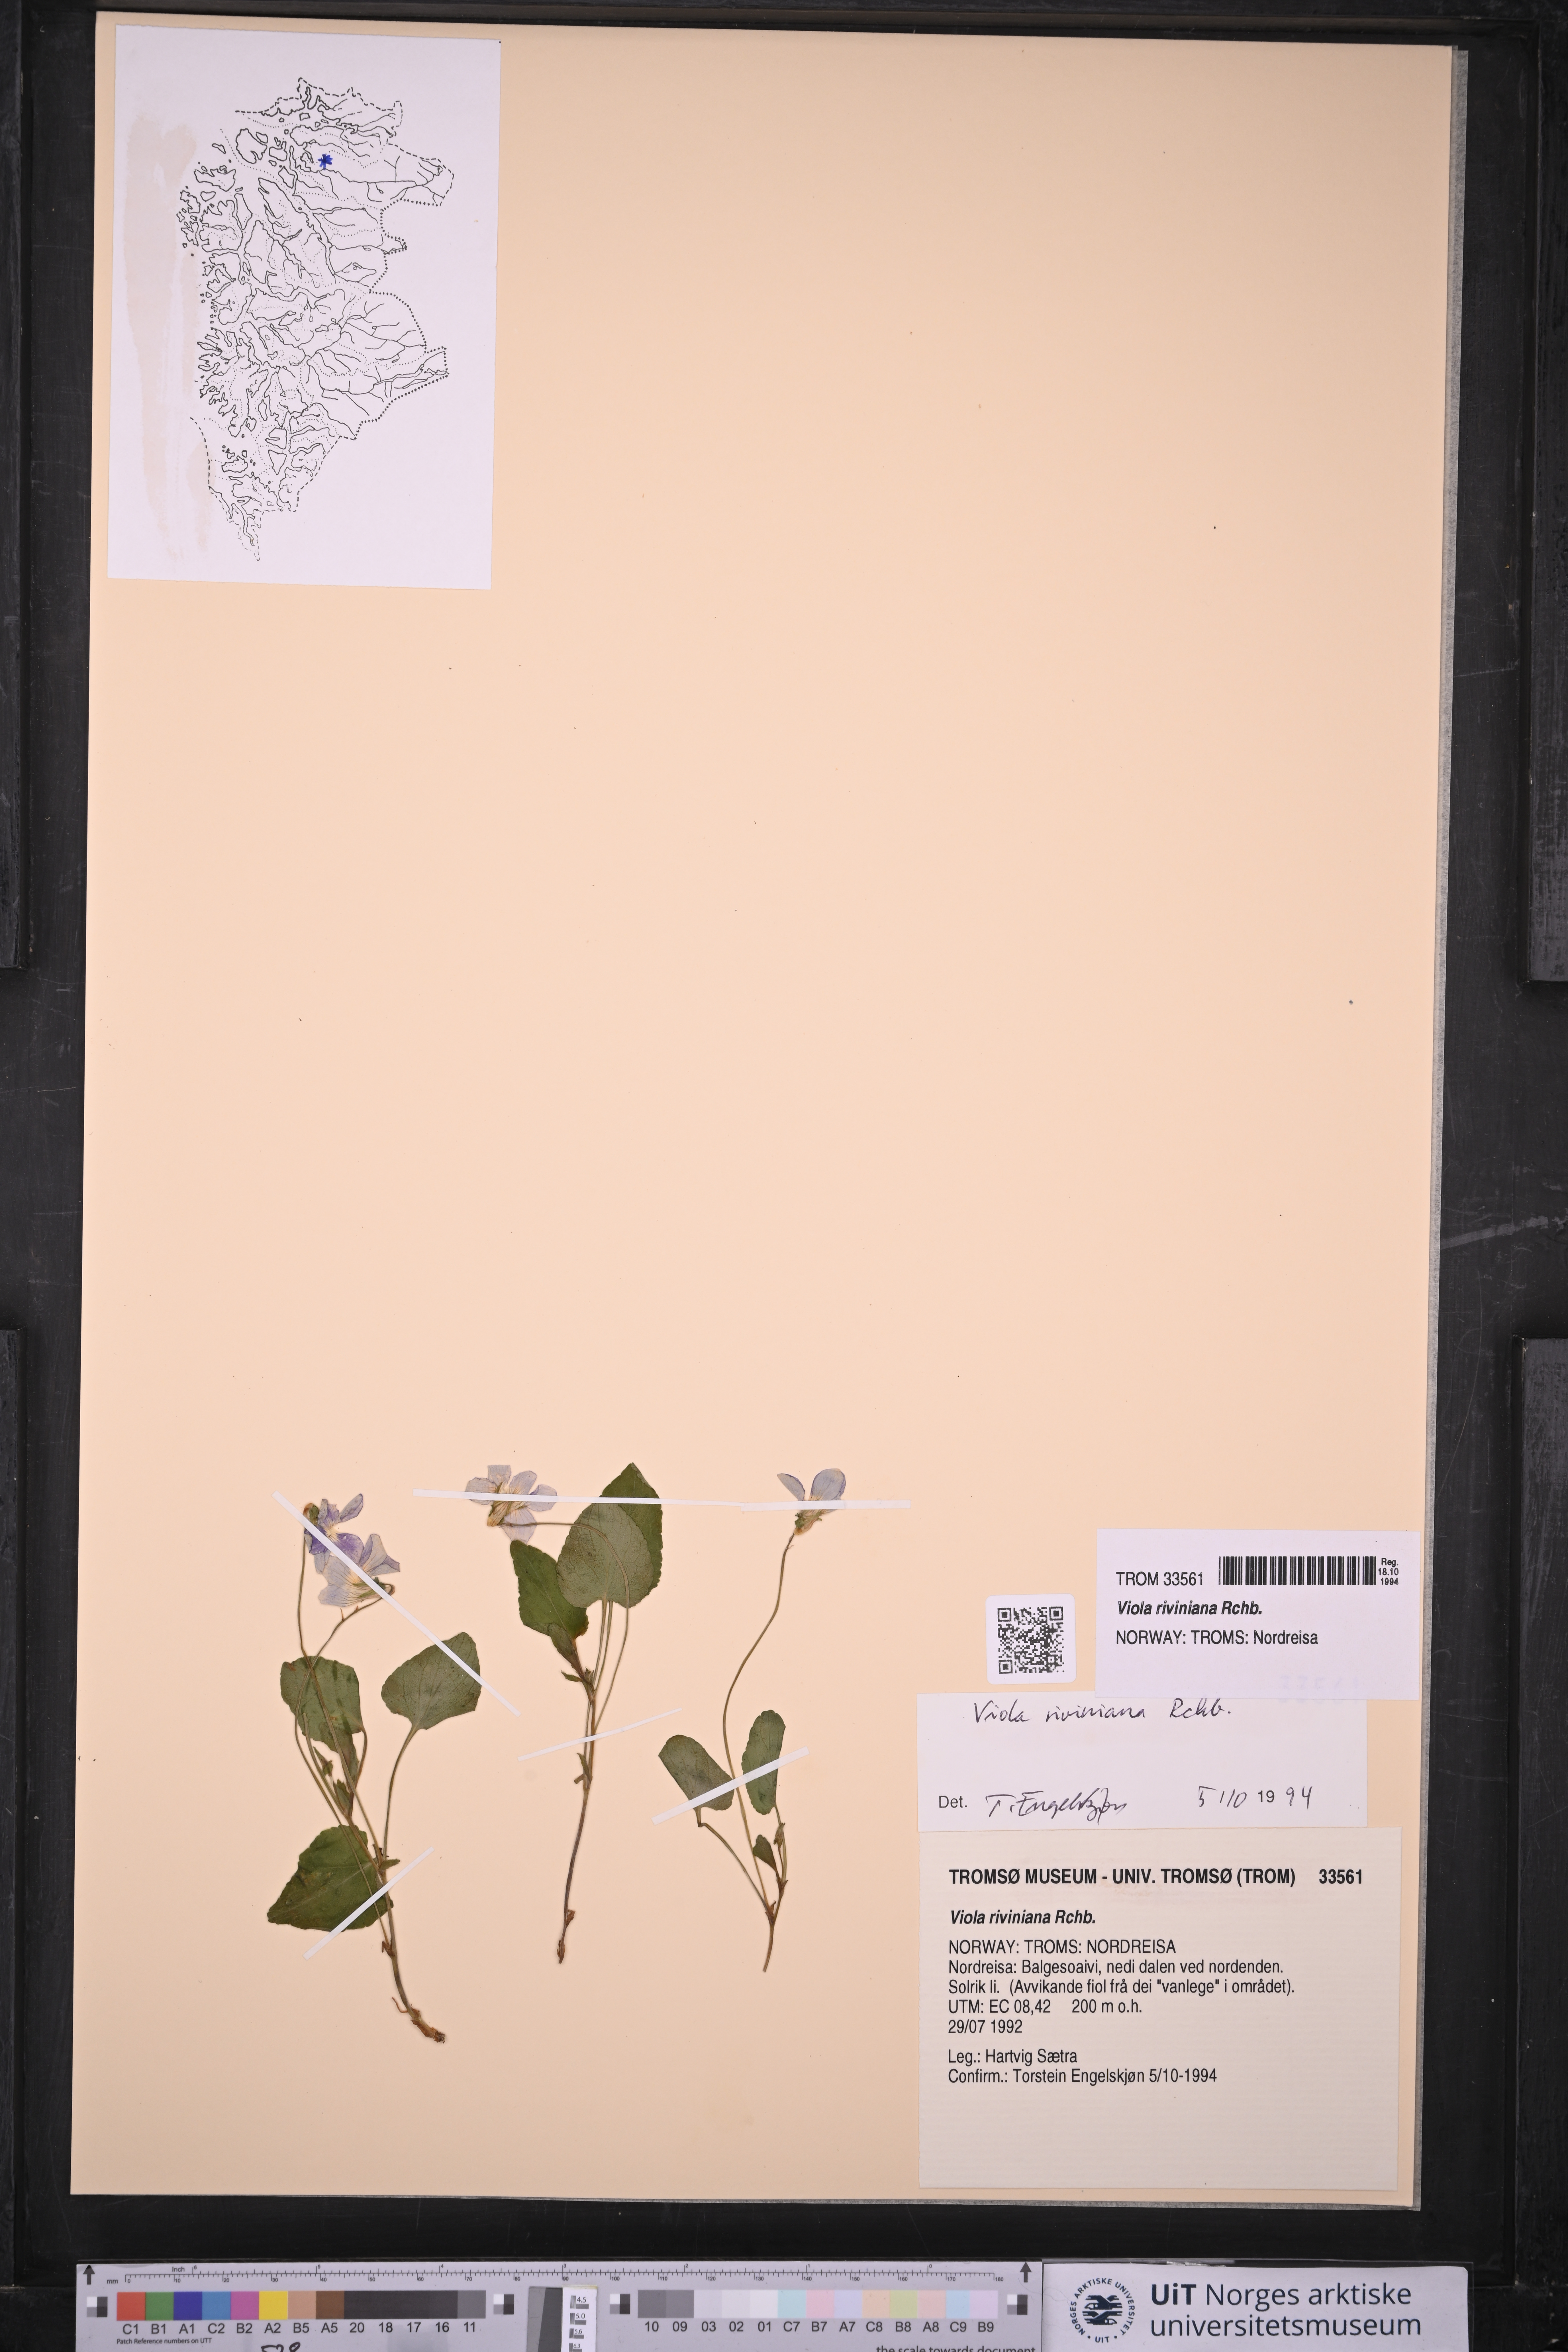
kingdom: Plantae
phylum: Tracheophyta
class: Magnoliopsida
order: Malpighiales
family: Violaceae
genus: Viola
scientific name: Viola riviniana
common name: Common dog-violet
